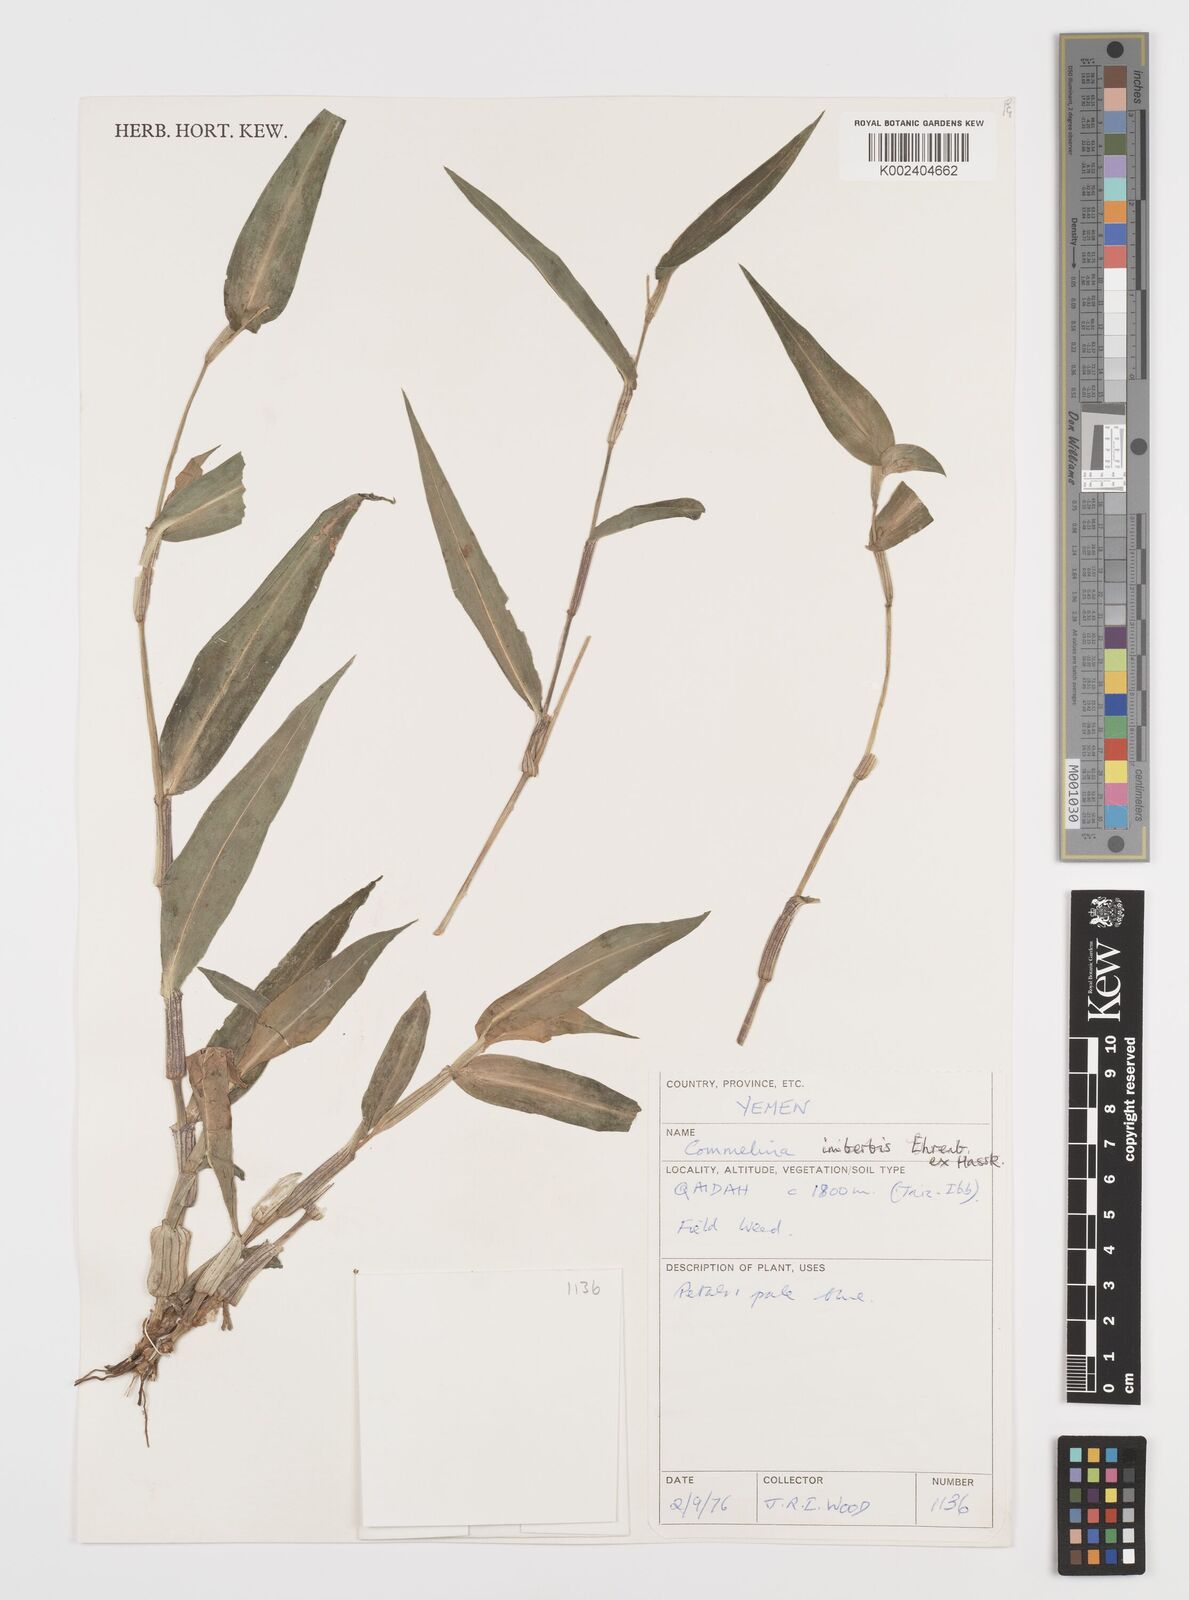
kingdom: Plantae
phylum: Tracheophyta
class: Liliopsida
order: Commelinales
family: Commelinaceae
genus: Commelina
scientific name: Commelina imberbis
